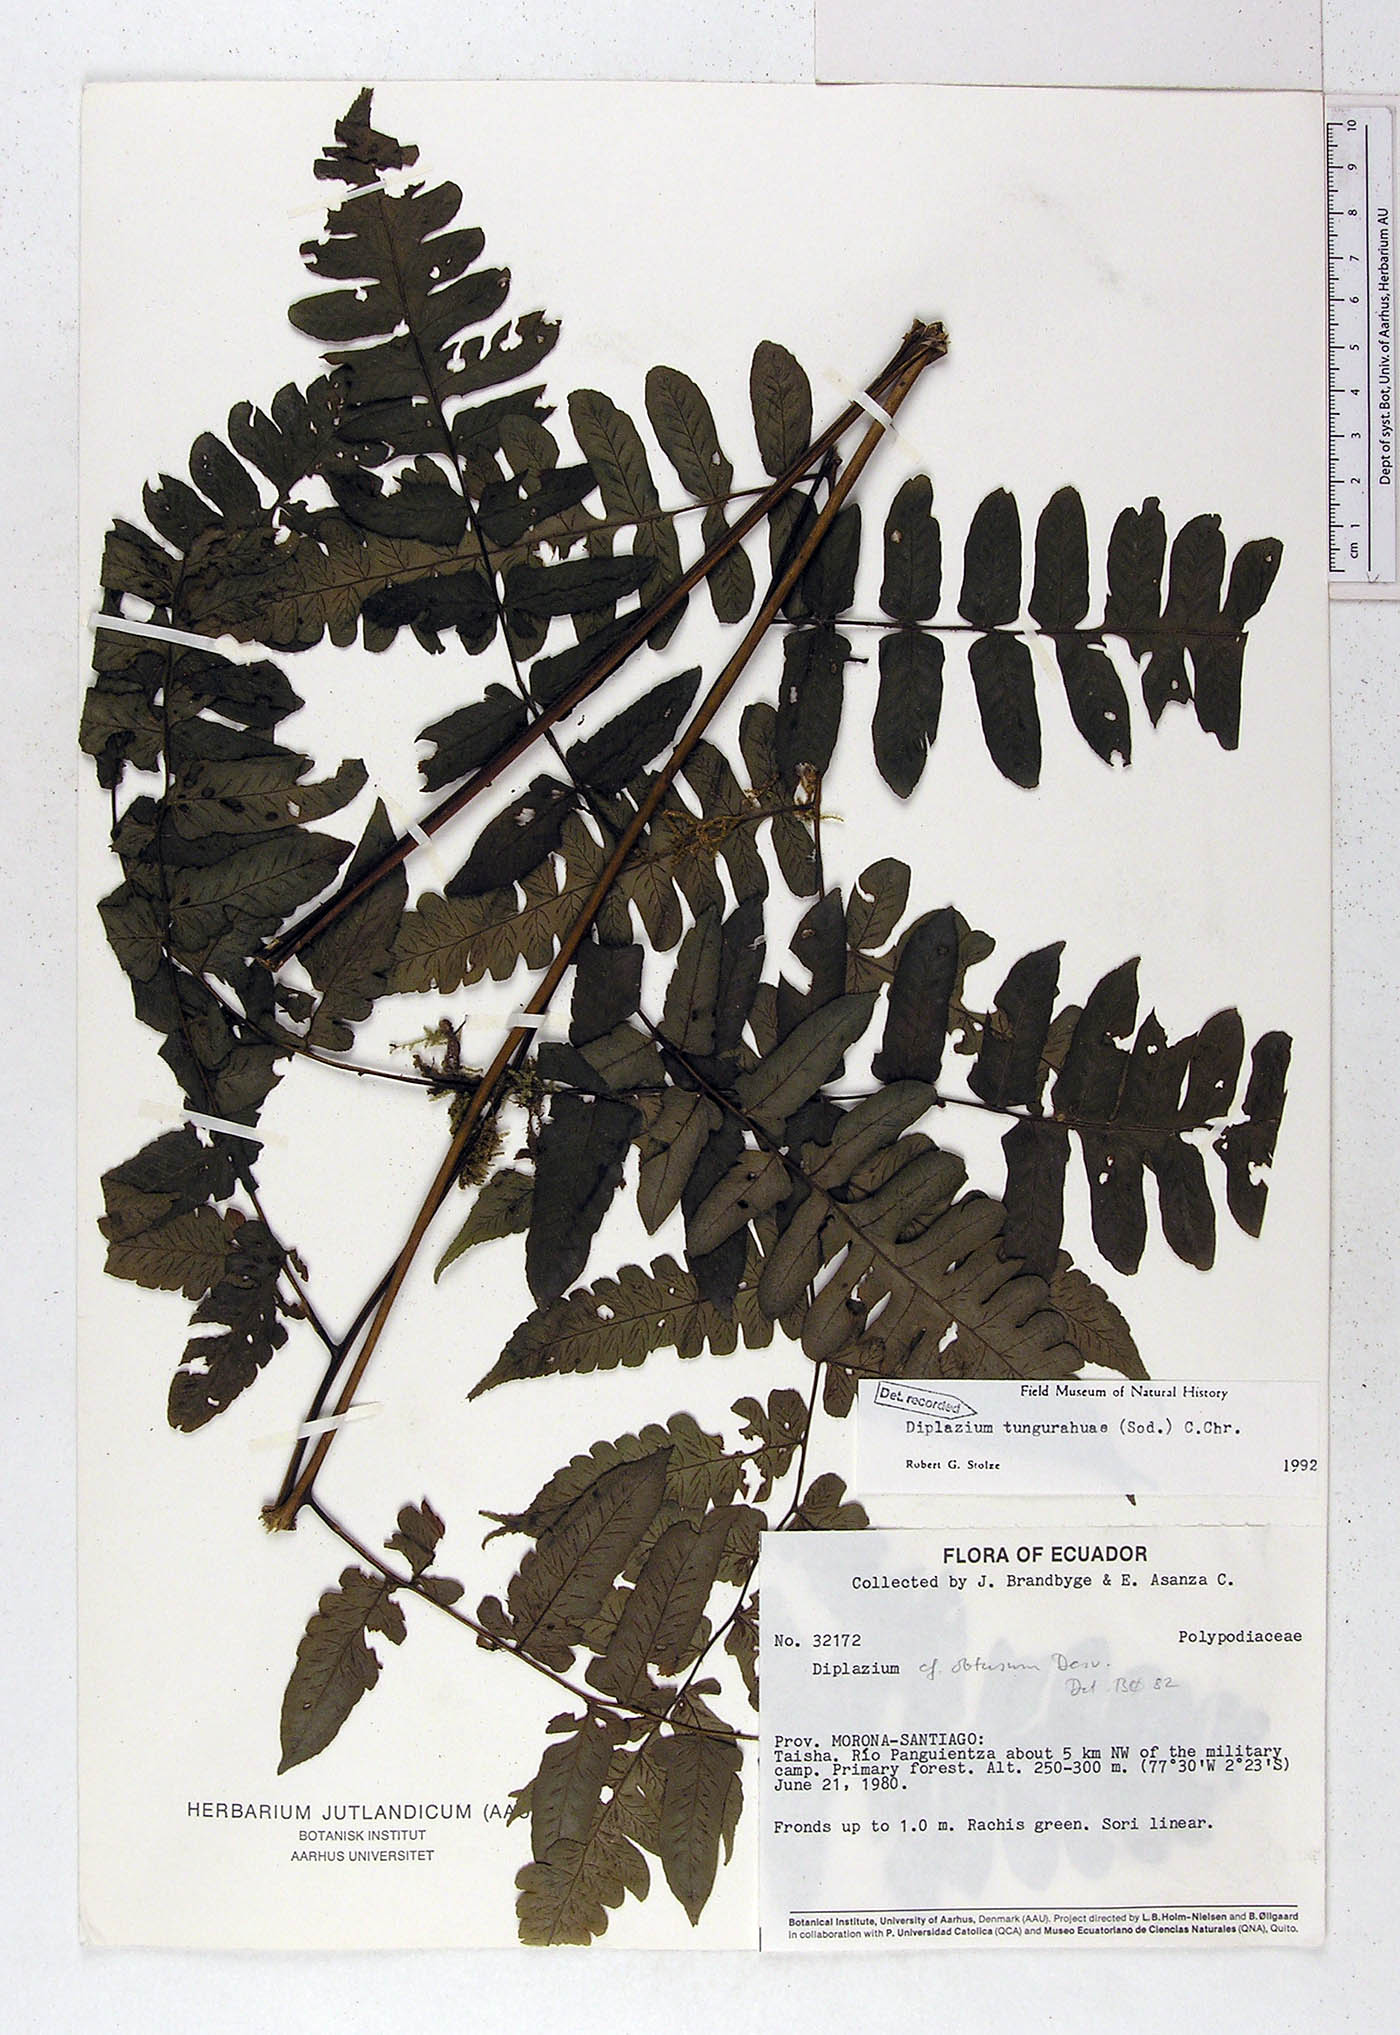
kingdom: Plantae
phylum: Tracheophyta
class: Polypodiopsida
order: Polypodiales
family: Athyriaceae
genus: Diplazium
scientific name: Diplazium tungurahuae
